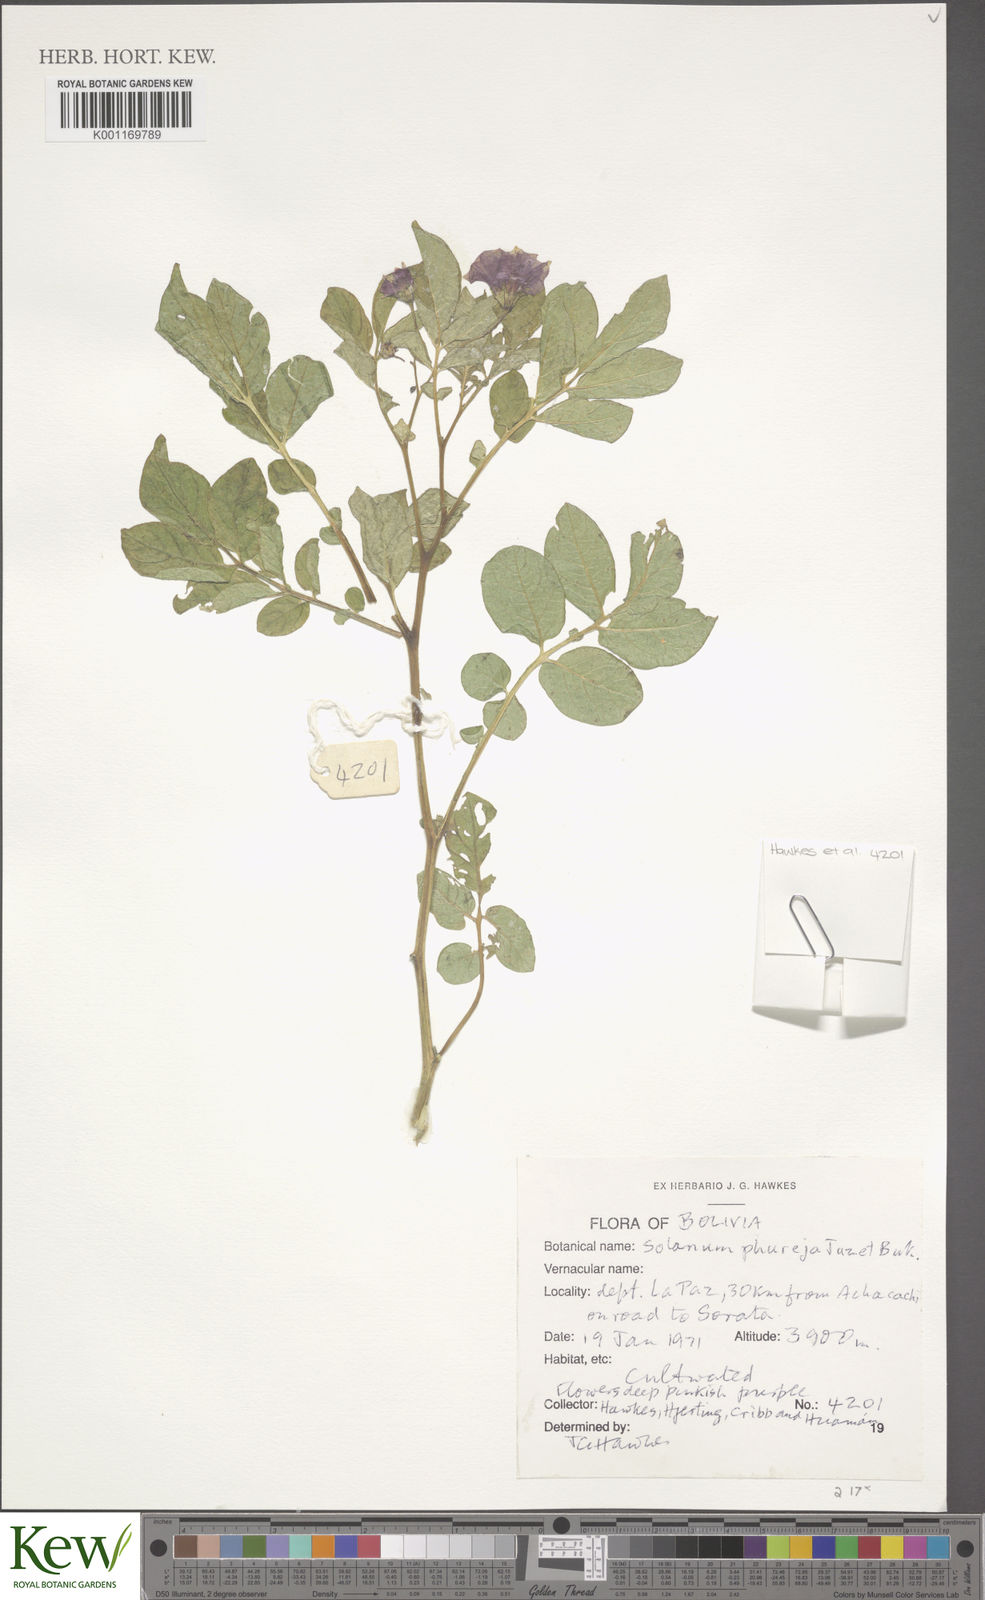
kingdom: Plantae
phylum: Tracheophyta
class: Magnoliopsida
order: Solanales
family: Solanaceae
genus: Solanum
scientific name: Solanum tuberosum
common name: Potato
